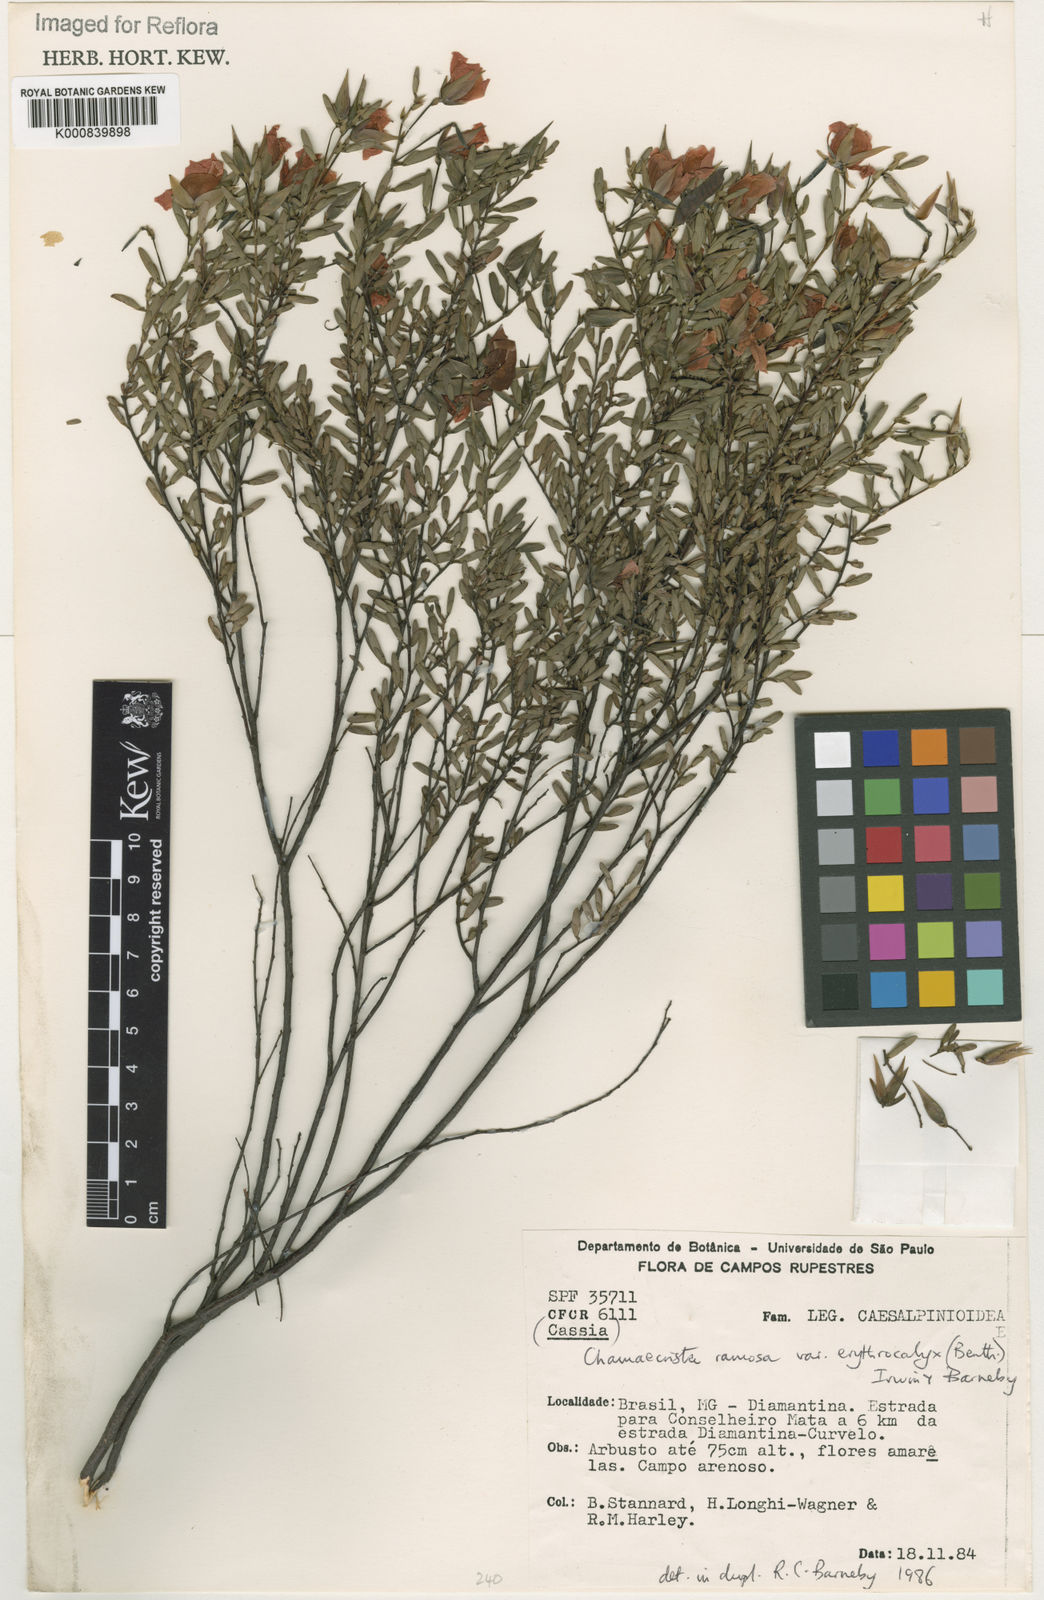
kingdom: Plantae
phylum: Tracheophyta
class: Magnoliopsida
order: Fabales
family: Fabaceae
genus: Chamaecrista
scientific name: Chamaecrista ramosa
